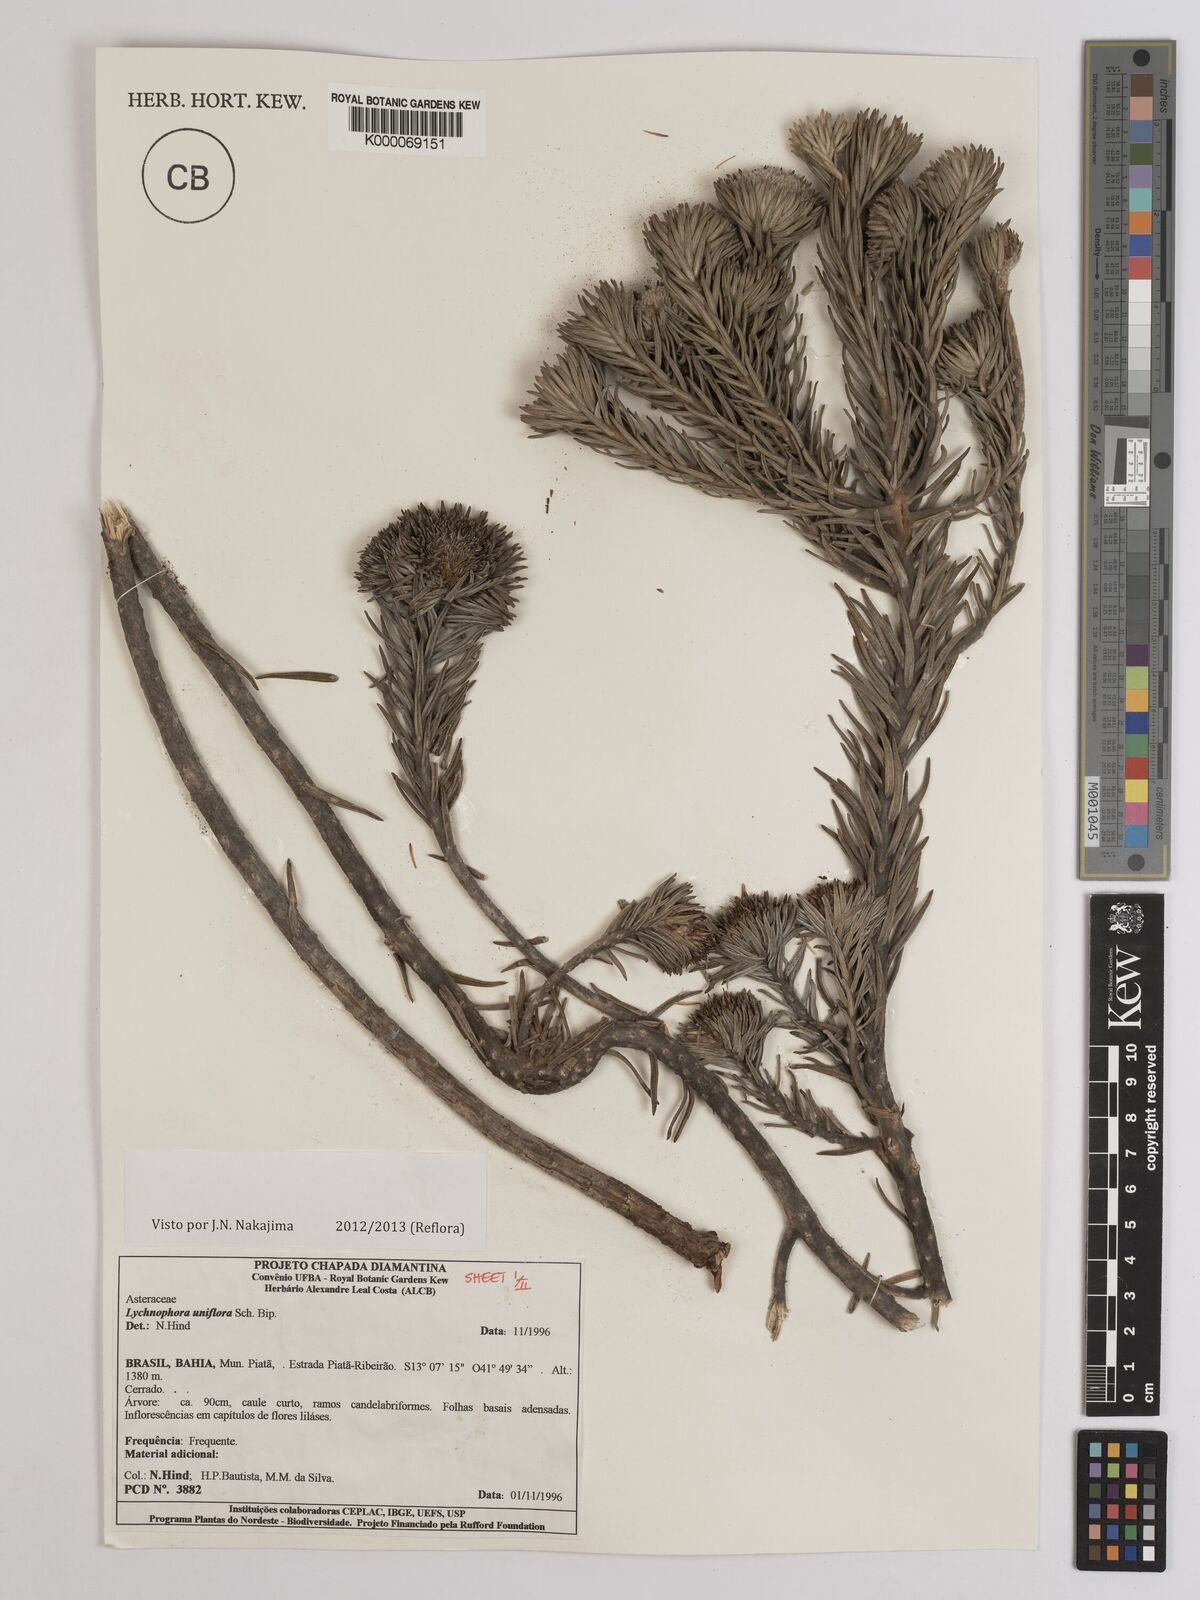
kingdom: Plantae
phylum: Tracheophyta
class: Magnoliopsida
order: Asterales
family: Asteraceae
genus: Lychnophora
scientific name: Lychnophora uniflora
